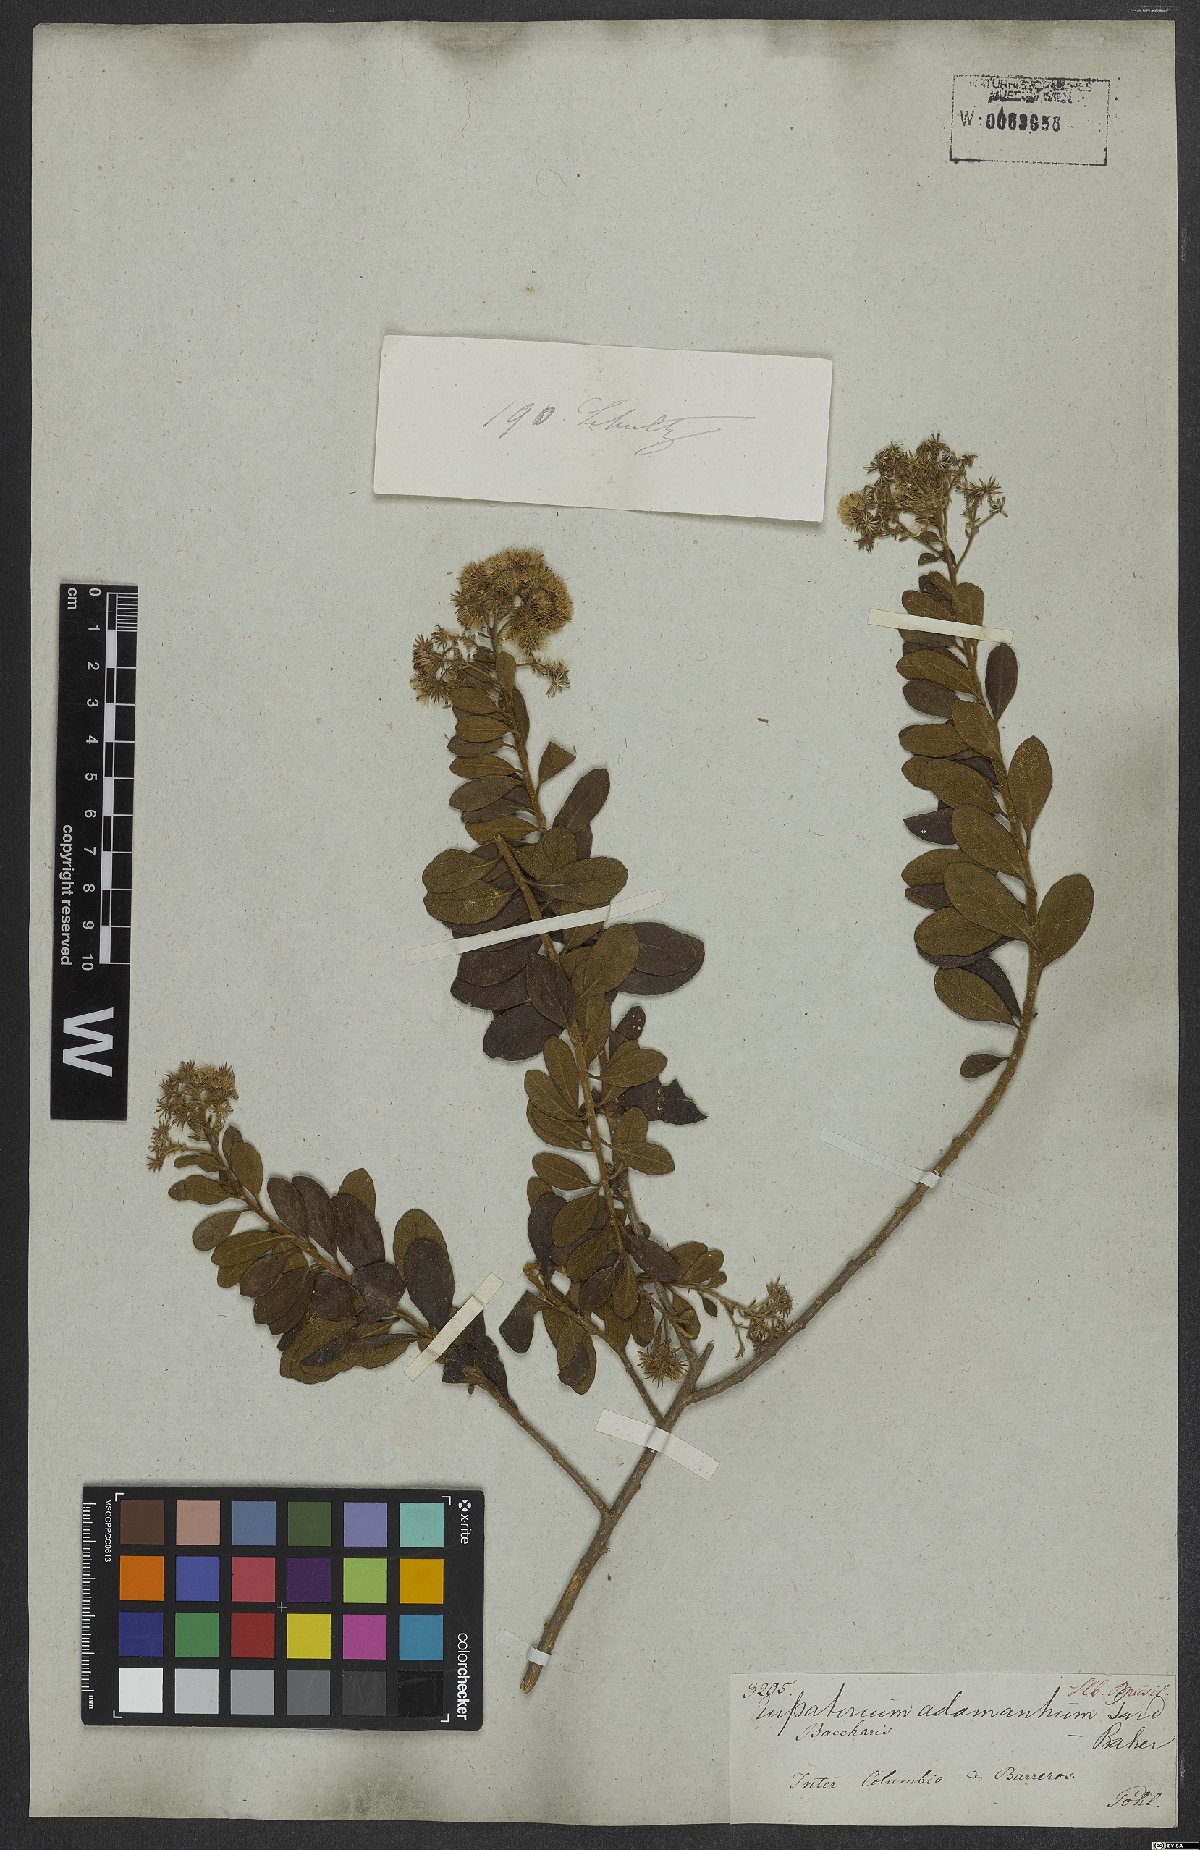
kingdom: Plantae
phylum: Tracheophyta
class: Magnoliopsida
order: Asterales
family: Asteraceae
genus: Trichogoniopsis
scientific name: Trichogoniopsis adenantha
